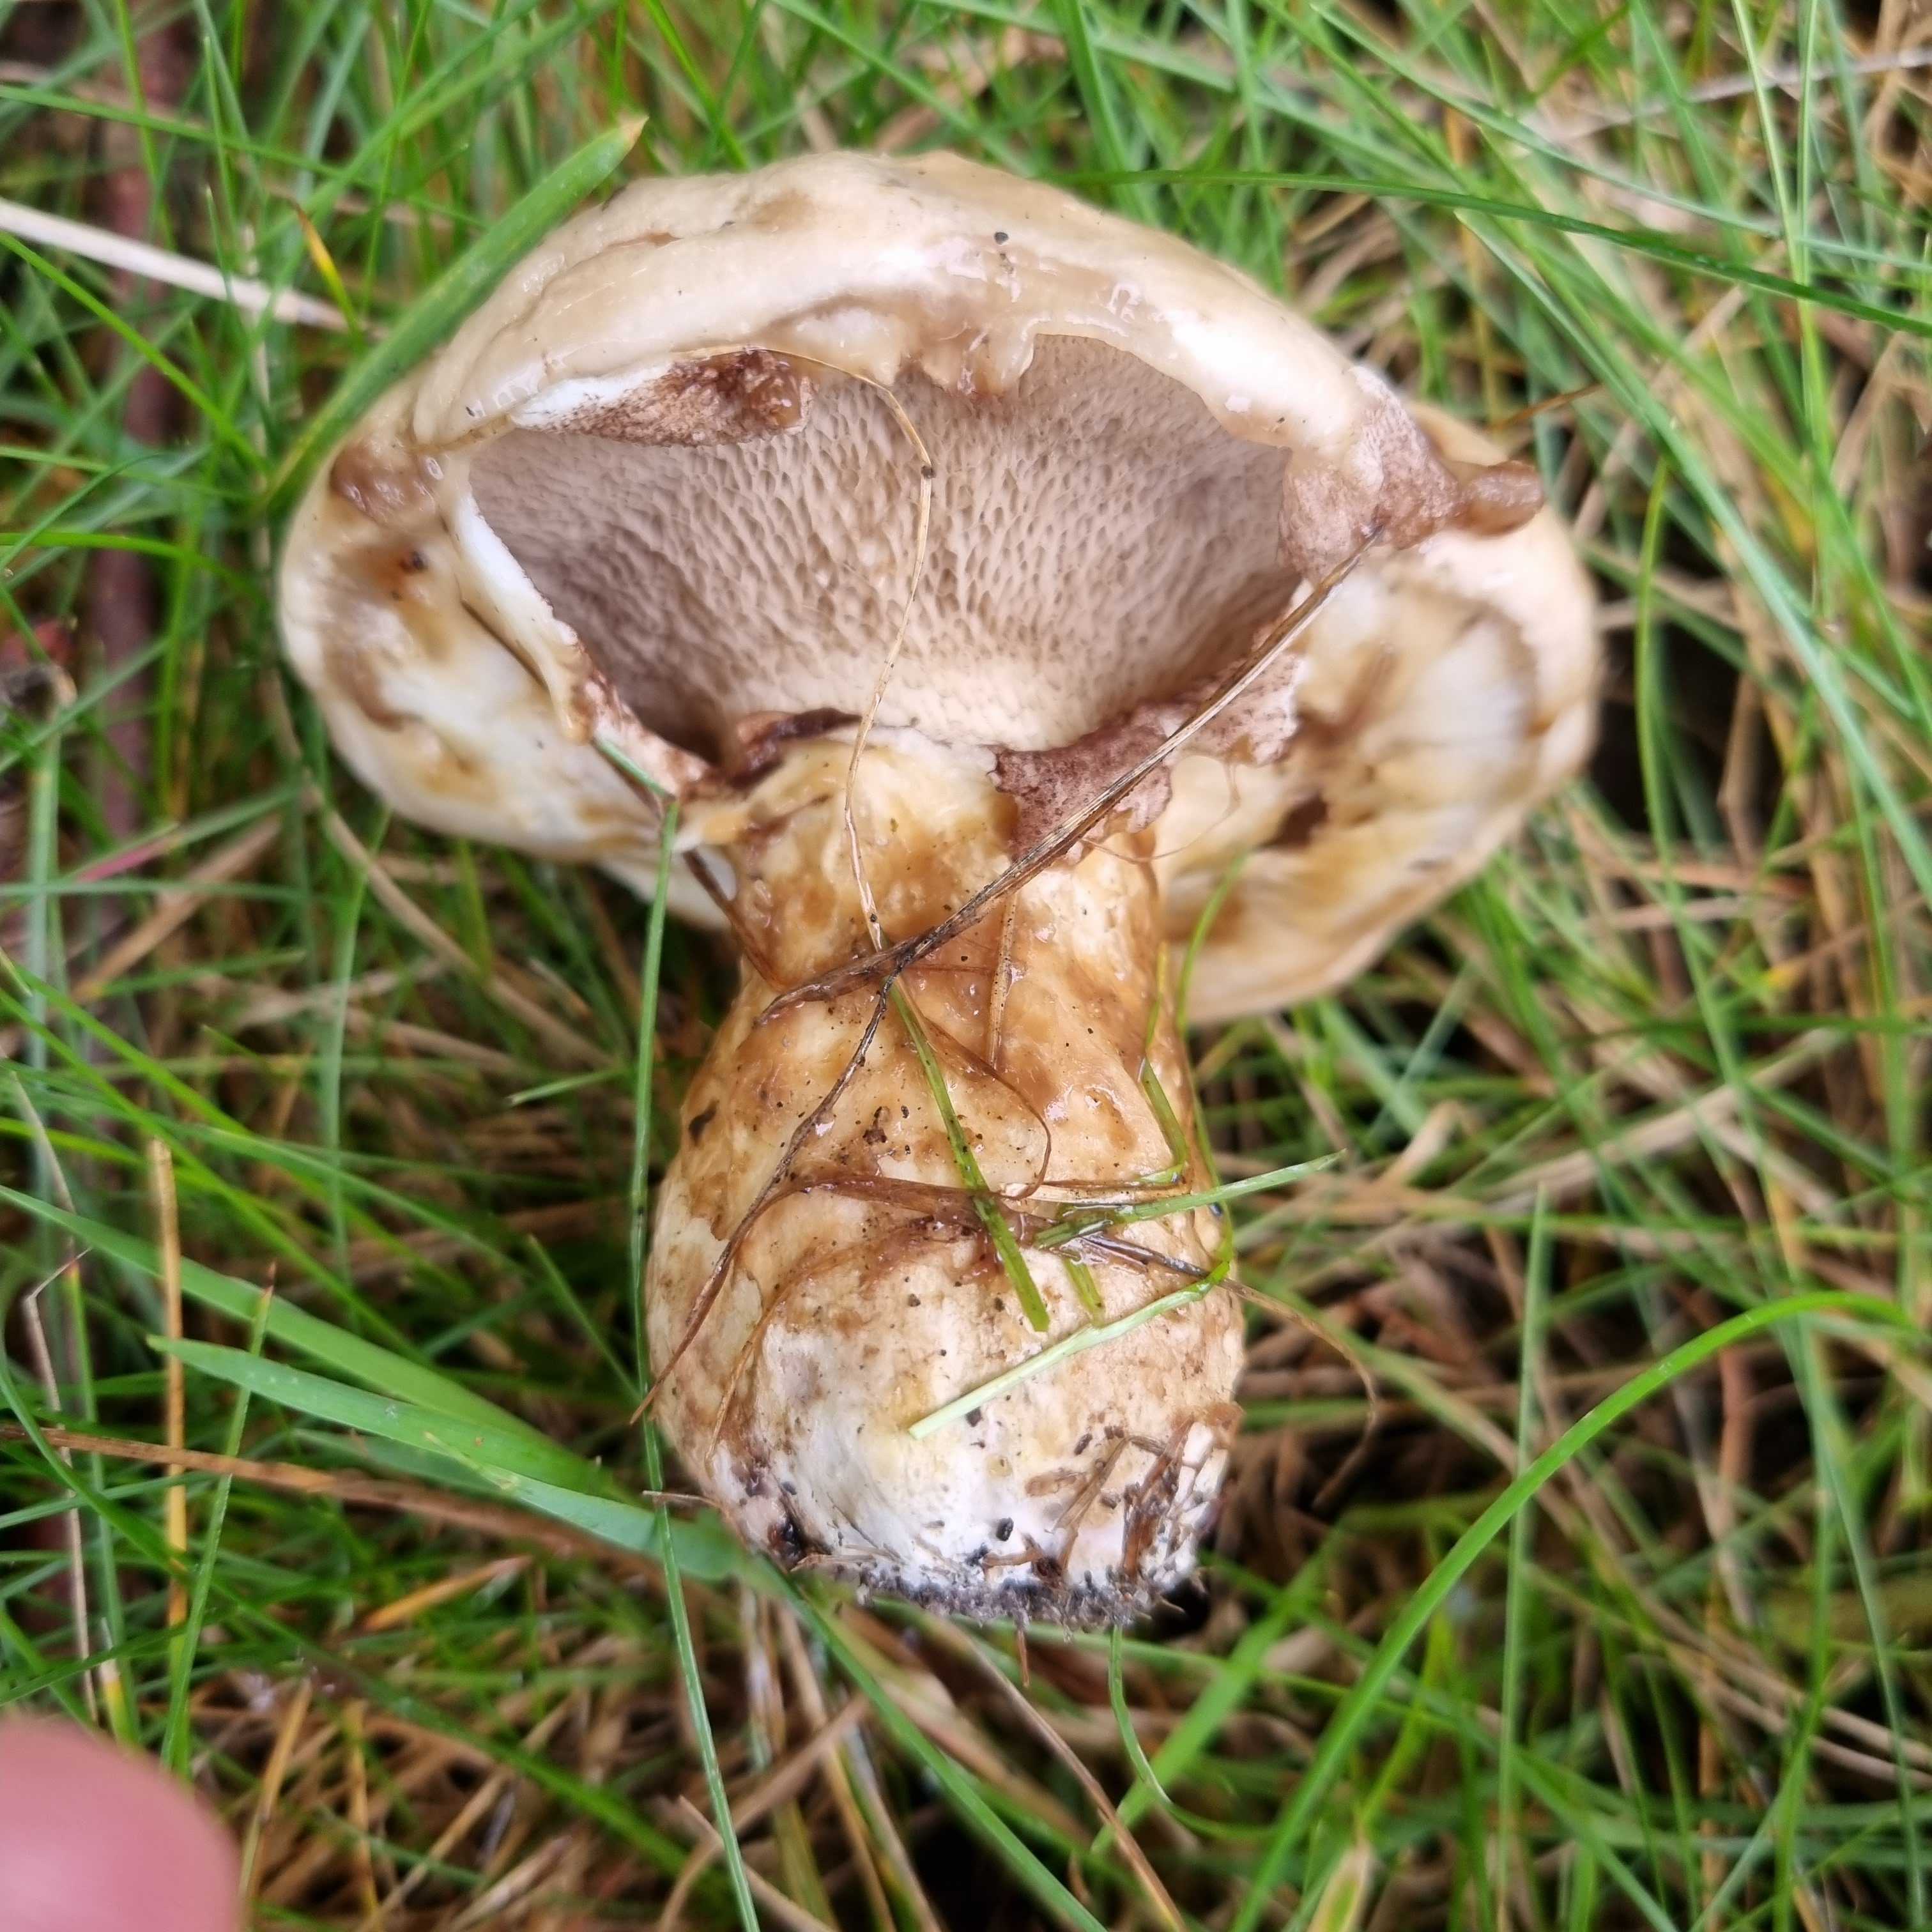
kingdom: Fungi
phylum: Basidiomycota
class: Agaricomycetes
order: Boletales
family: Suillaceae
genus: Suillus
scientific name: Suillus viscidus
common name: olivengrå slimrørhat
